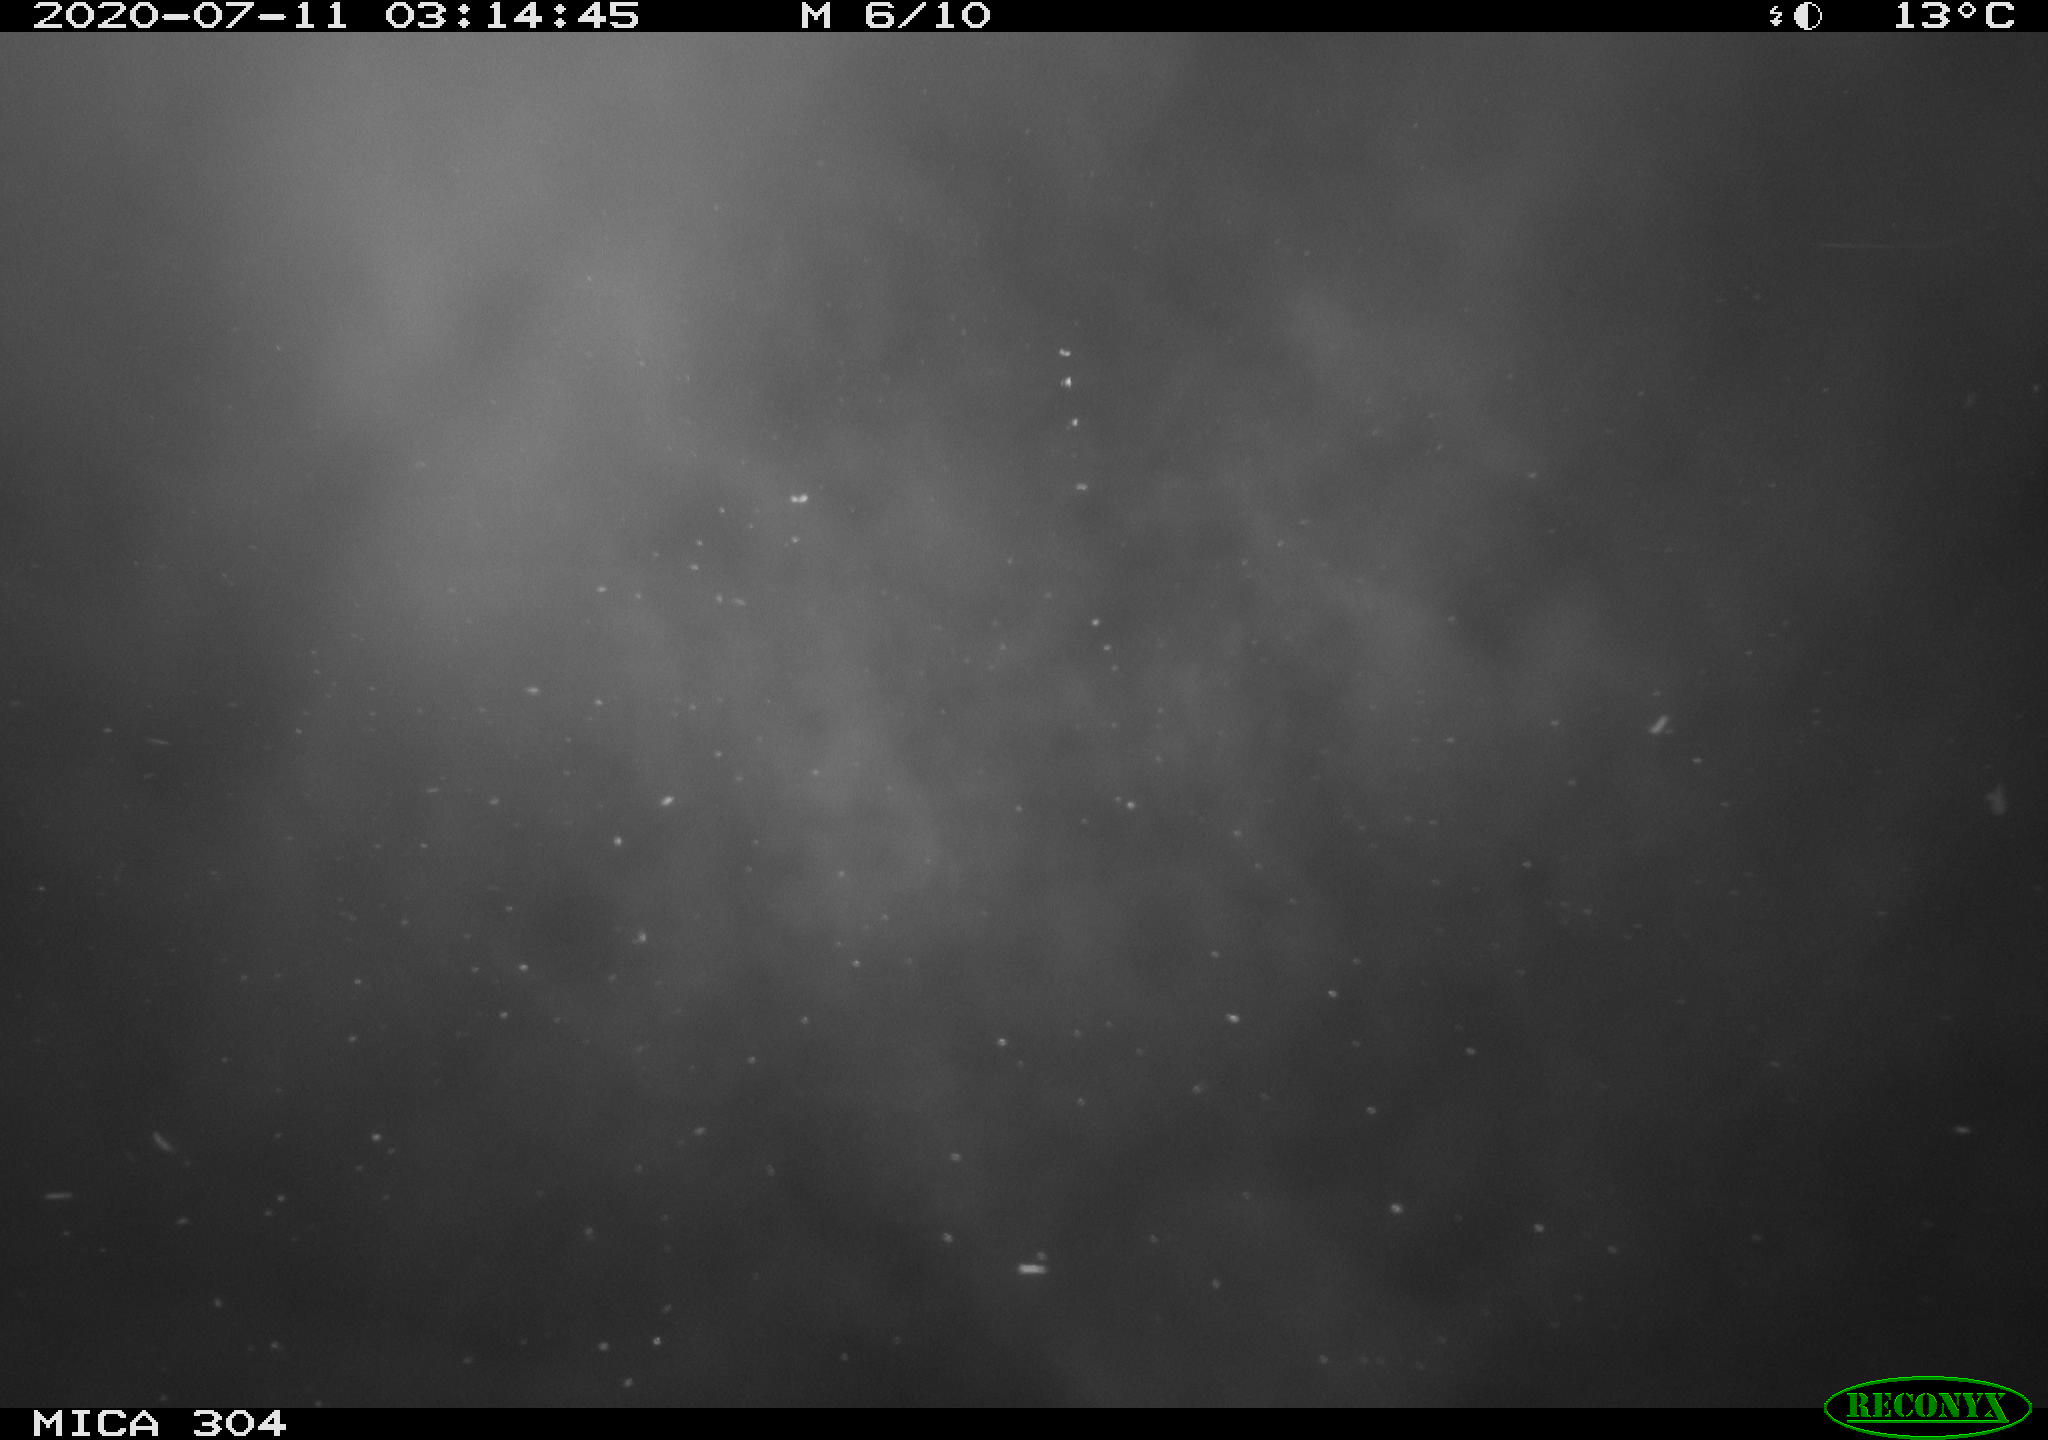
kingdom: Animalia
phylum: Chordata
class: Mammalia
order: Rodentia
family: Cricetidae
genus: Ondatra
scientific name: Ondatra zibethicus
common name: Muskrat
